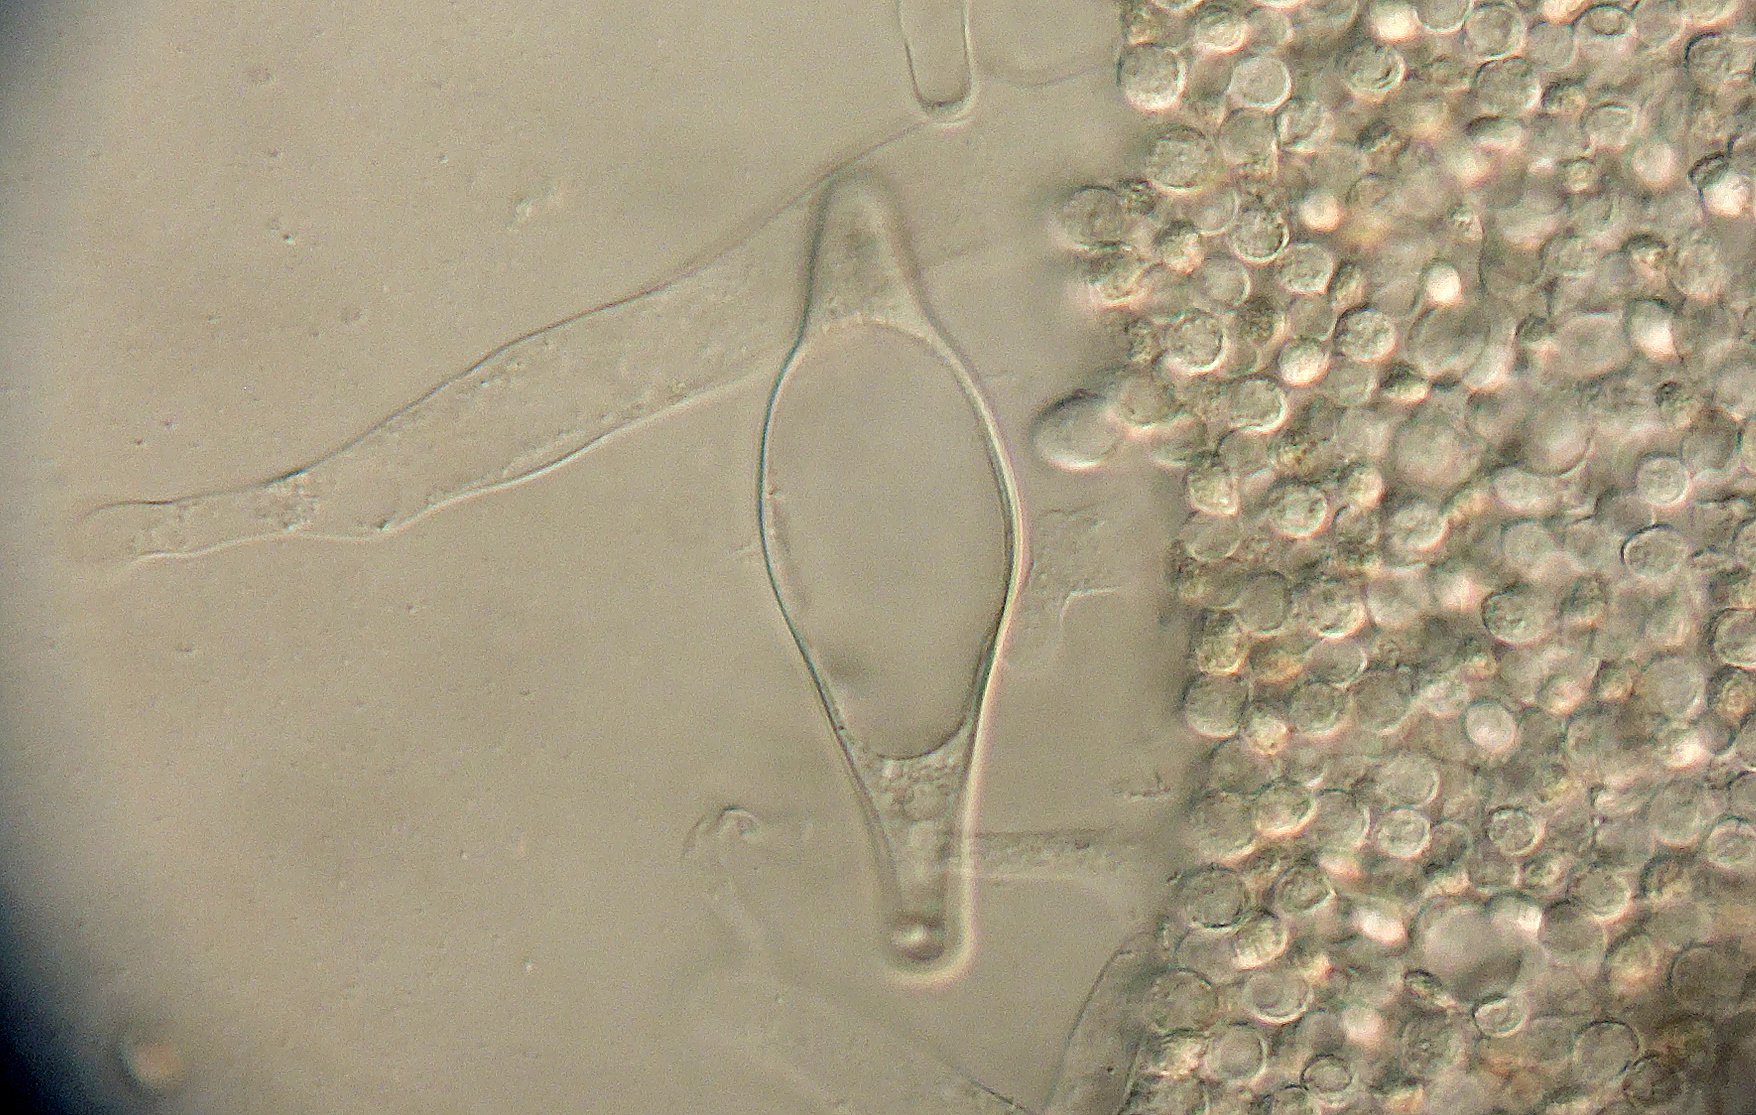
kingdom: Fungi
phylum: Basidiomycota
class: Agaricomycetes
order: Agaricales
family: Pluteaceae
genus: Pluteus
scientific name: Pluteus semibulbosus
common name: knoldet skærmhat
